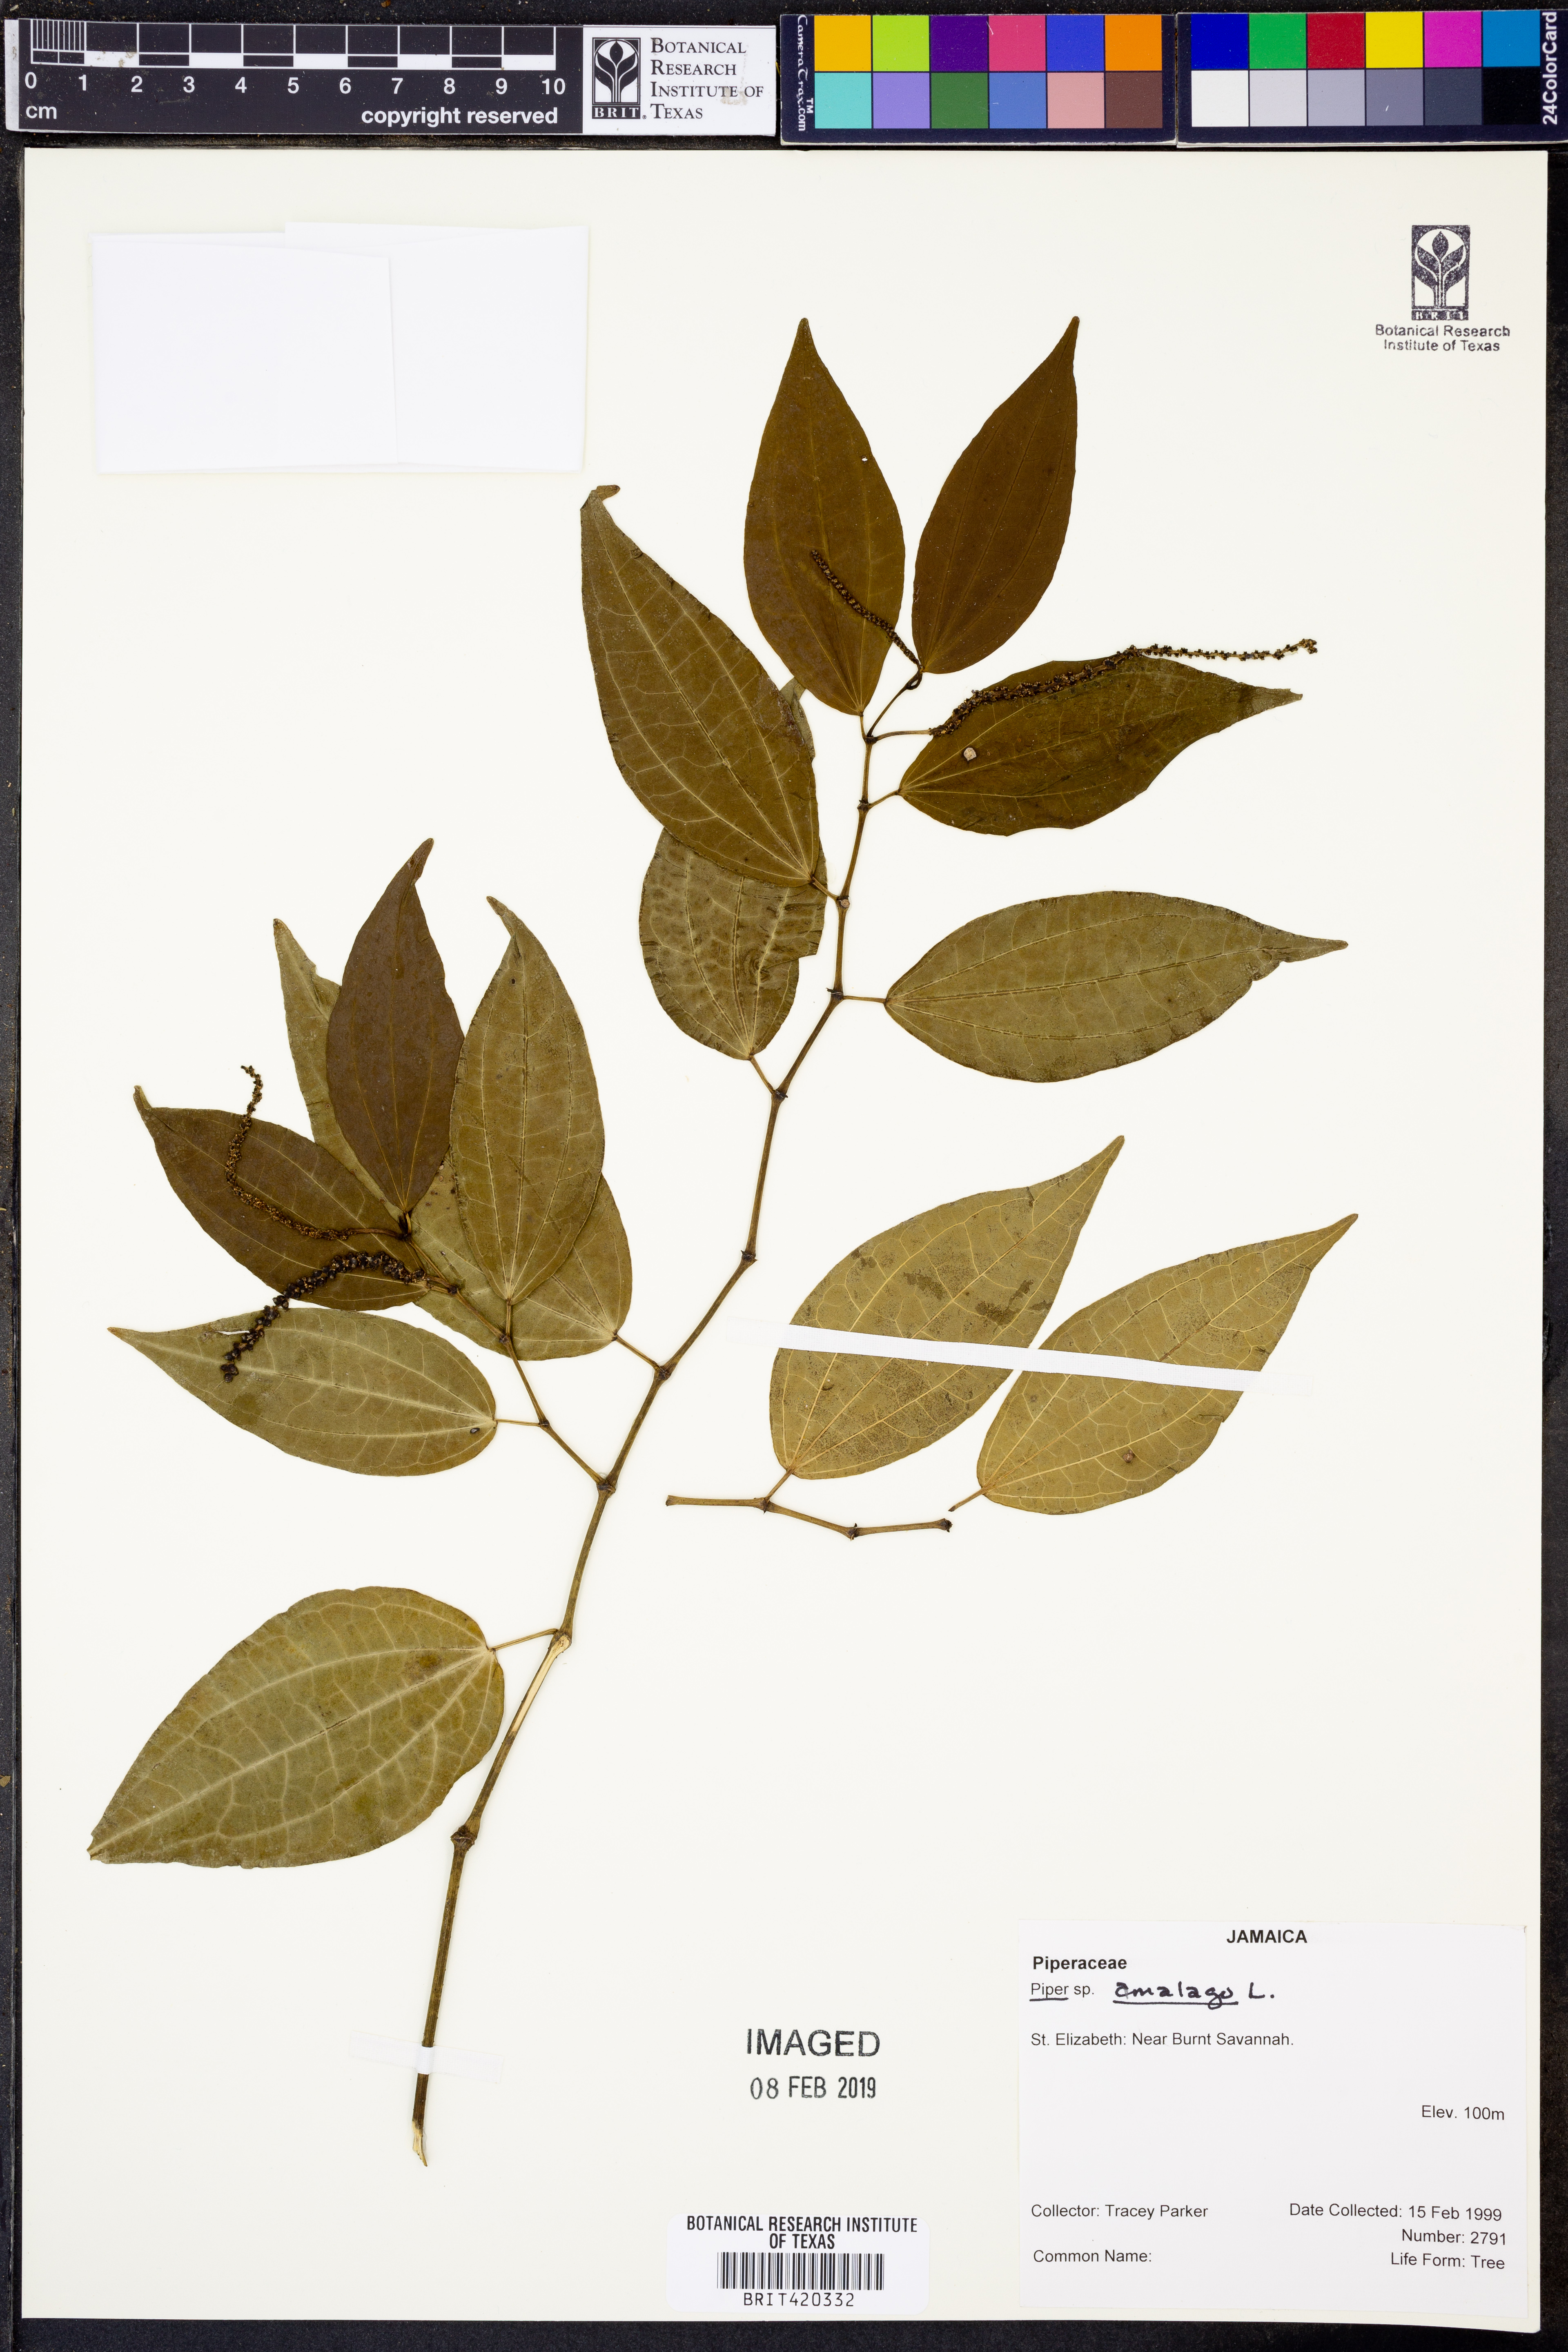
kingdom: Plantae
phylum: Tracheophyta
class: Magnoliopsida
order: Piperales
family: Piperaceae
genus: Piper
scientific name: Piper amalago
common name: Pepper-elder
